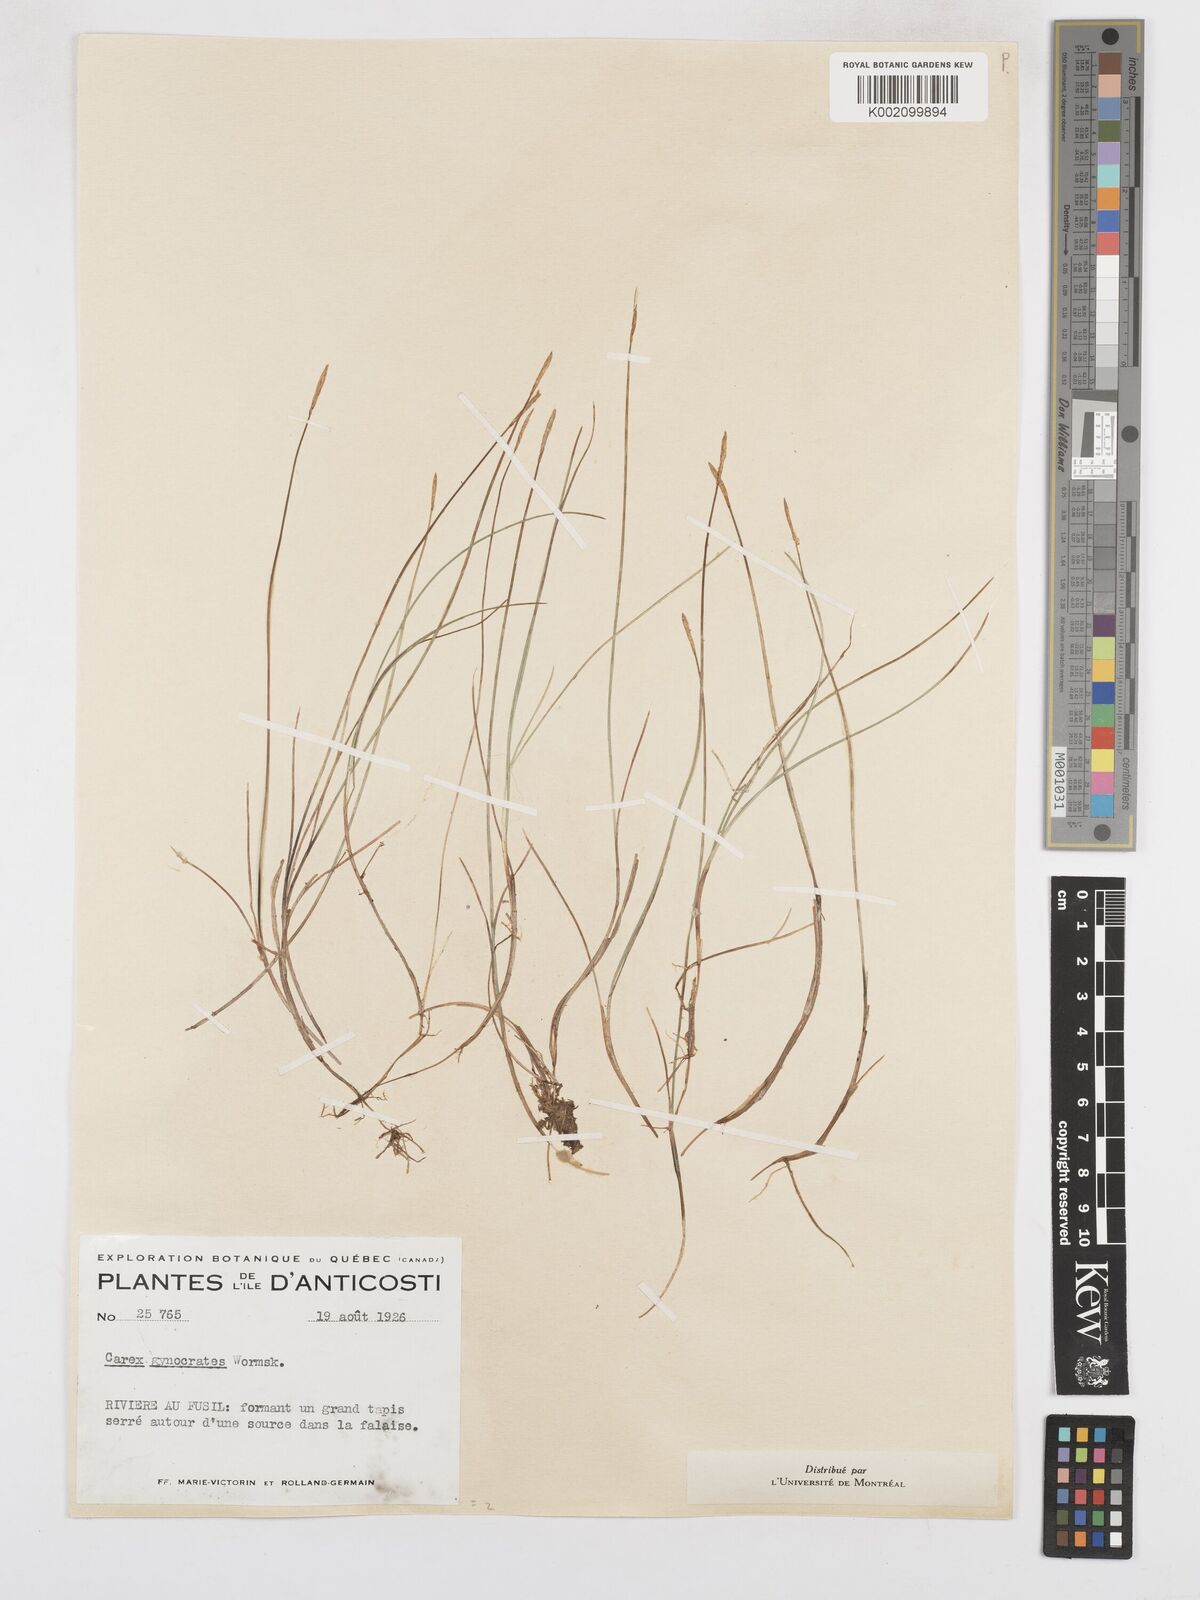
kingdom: Plantae
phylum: Tracheophyta
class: Liliopsida
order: Poales
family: Cyperaceae
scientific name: Cyperaceae
